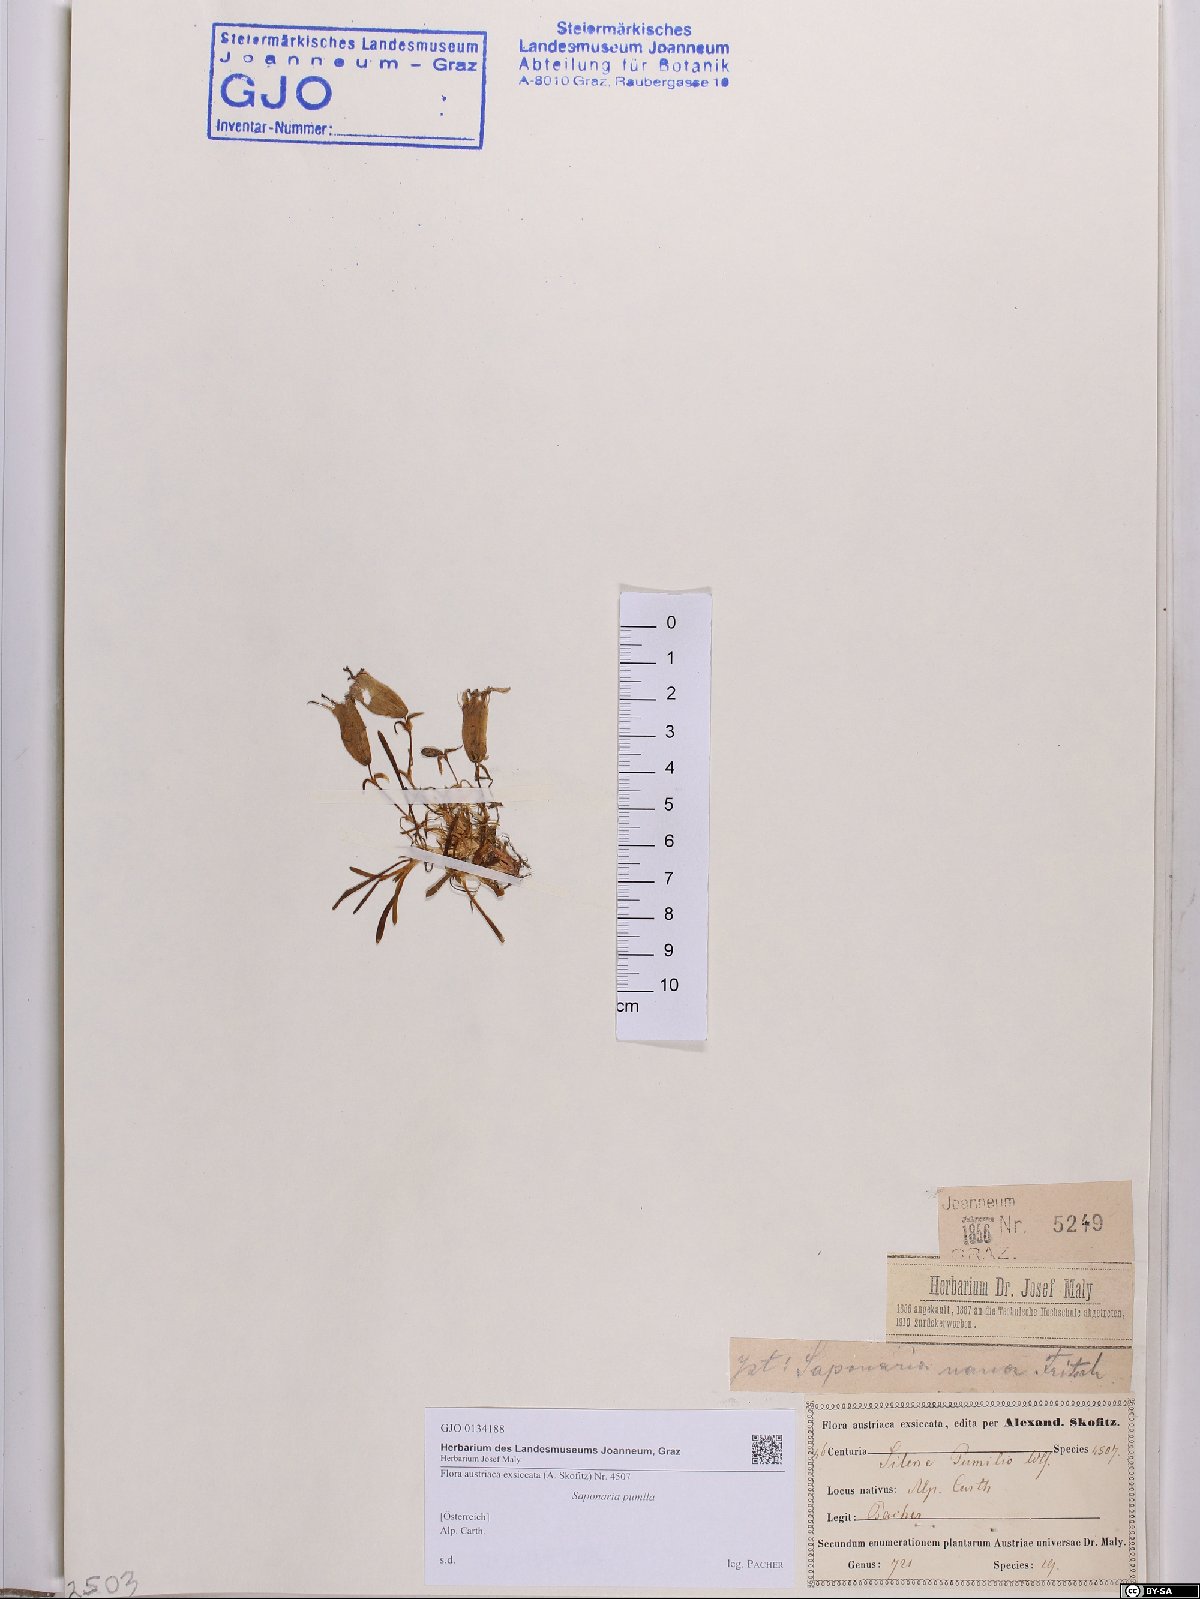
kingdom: Plantae
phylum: Tracheophyta
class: Magnoliopsida
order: Caryophyllales
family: Caryophyllaceae
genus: Saponaria
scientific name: Saponaria pumila
